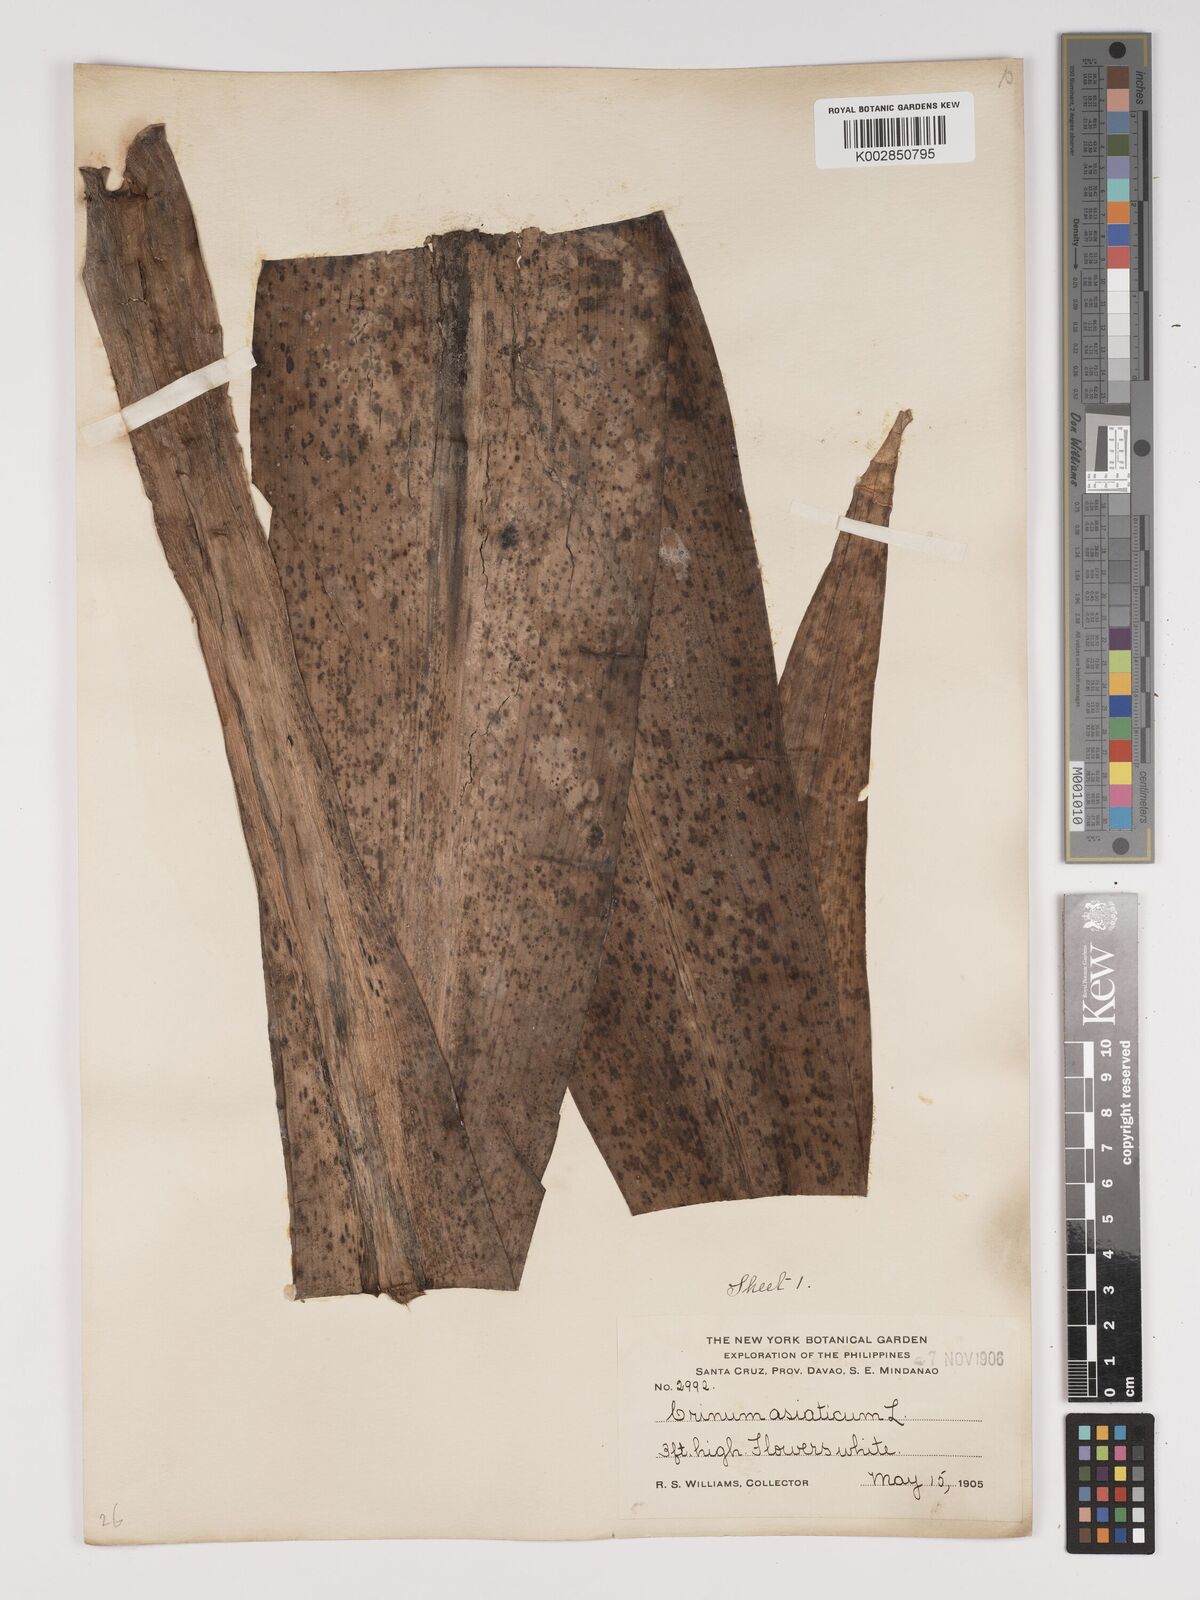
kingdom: Plantae
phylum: Tracheophyta
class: Liliopsida
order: Asparagales
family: Amaryllidaceae
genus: Crinum
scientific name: Crinum asiaticum
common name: Poisonbulb
